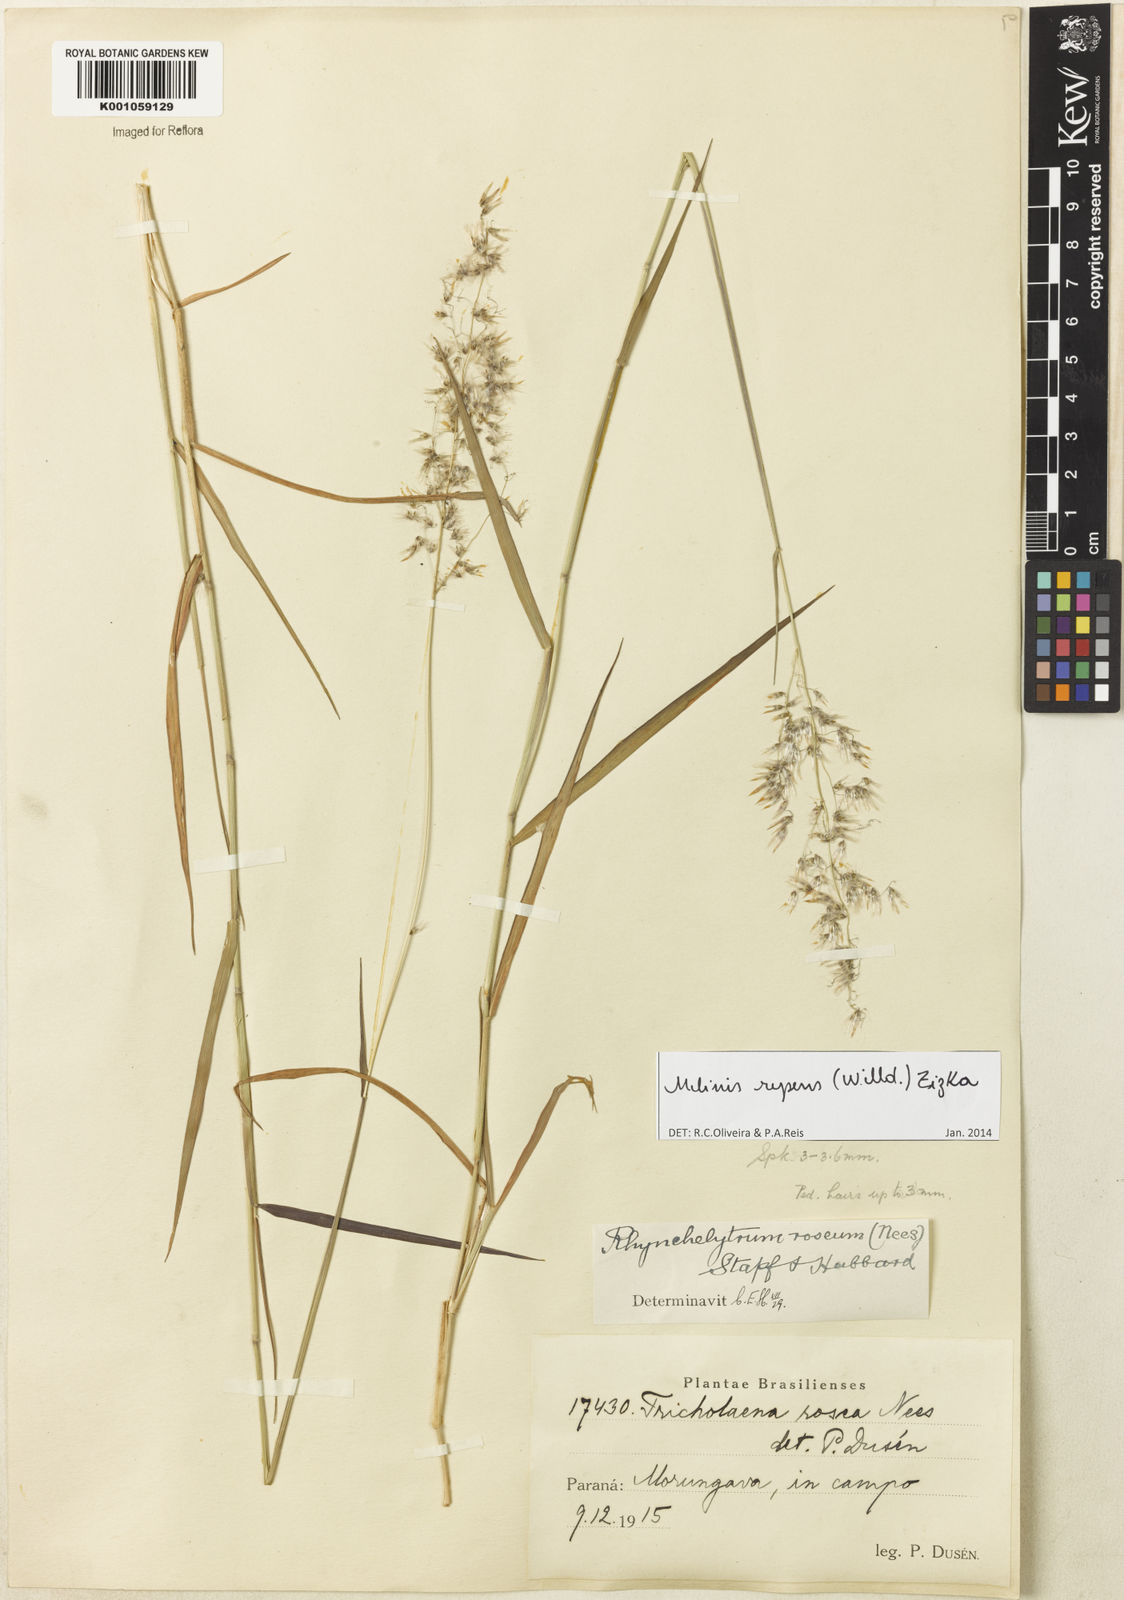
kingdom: Plantae
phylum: Tracheophyta
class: Liliopsida
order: Poales
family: Poaceae
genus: Melinis
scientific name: Melinis repens
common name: Rose natal grass
